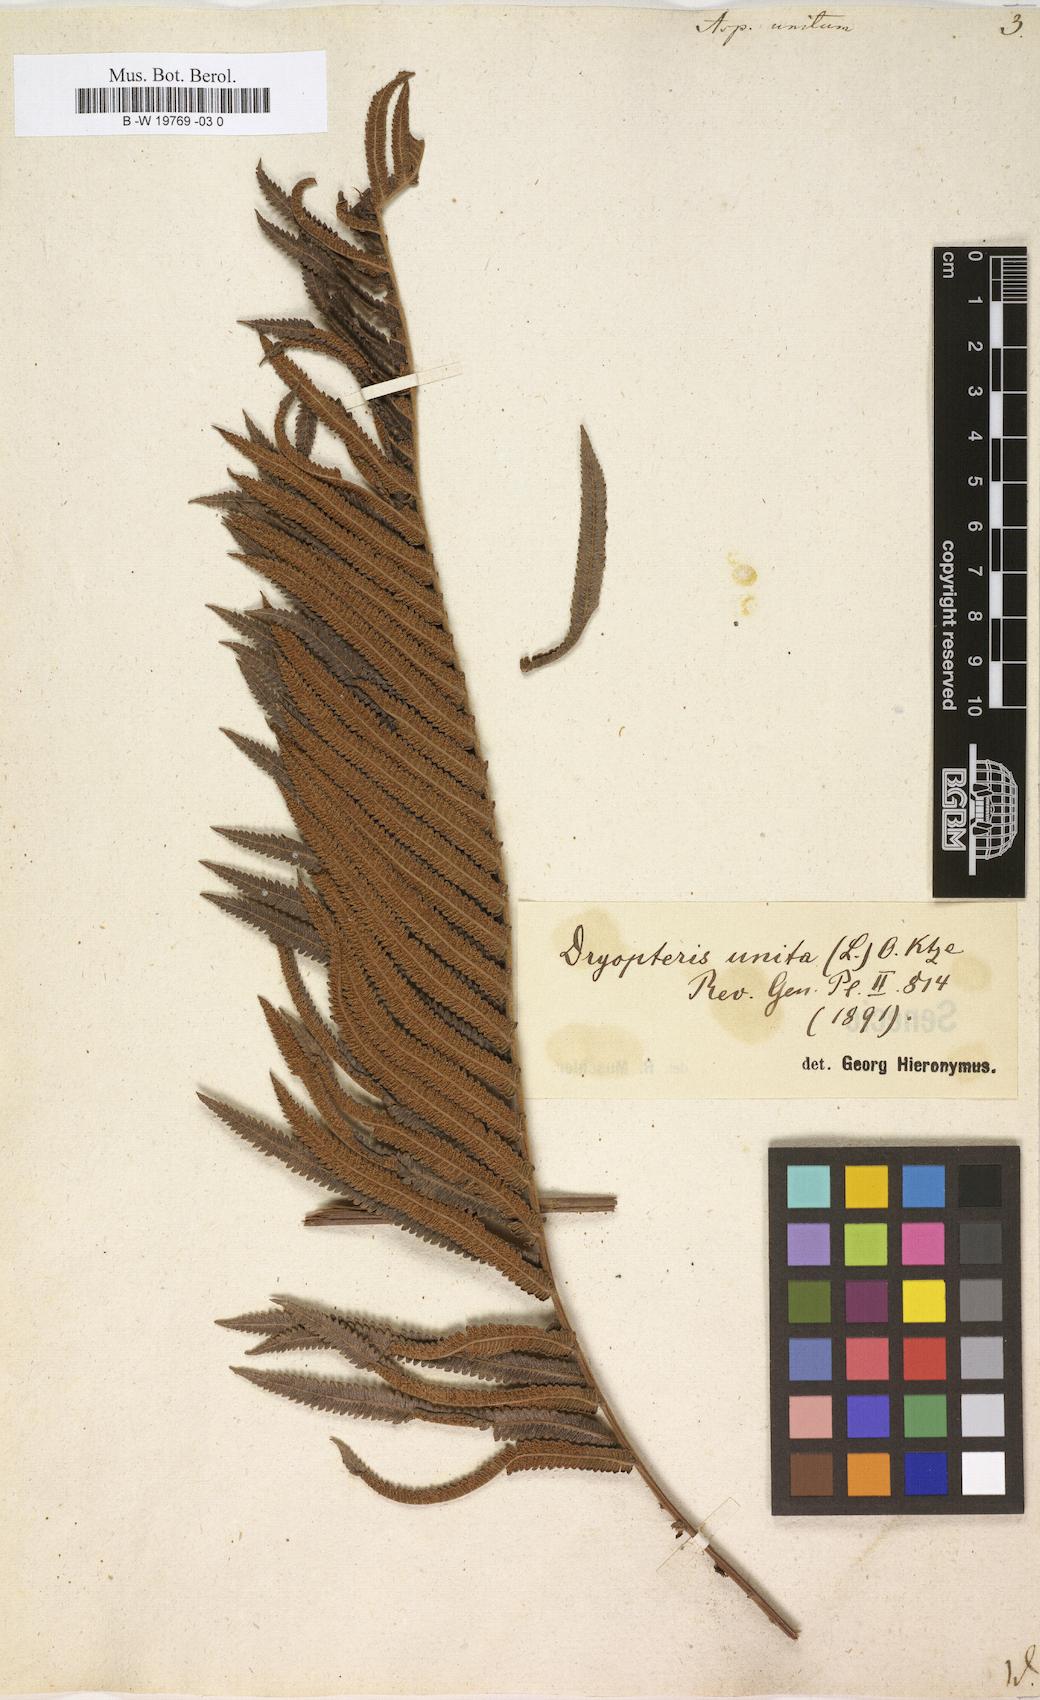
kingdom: Plantae
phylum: Tracheophyta
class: Polypodiopsida
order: Polypodiales
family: Thelypteridaceae
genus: Cyclosorus
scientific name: Cyclosorus interruptus
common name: Neke fern
